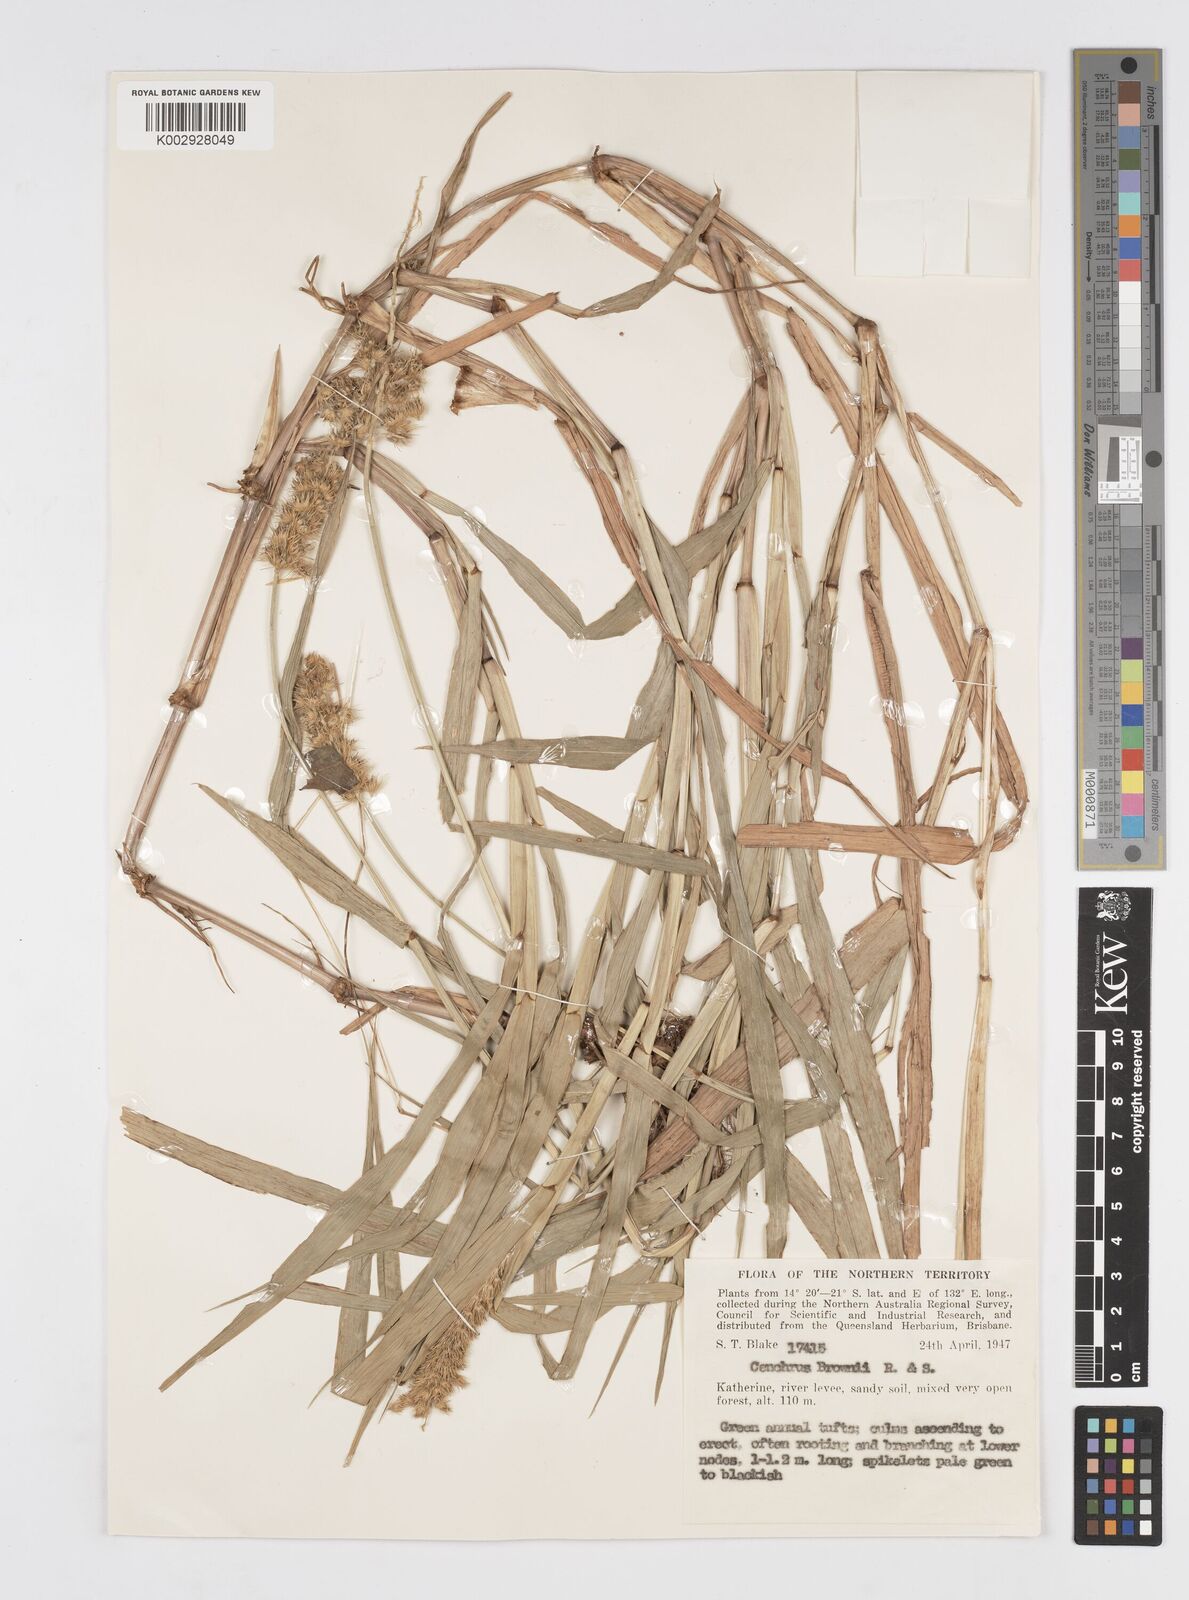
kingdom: Plantae
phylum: Tracheophyta
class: Liliopsida
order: Poales
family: Poaceae
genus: Cenchrus
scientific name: Cenchrus brownii
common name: Slim-bristle sandbur
